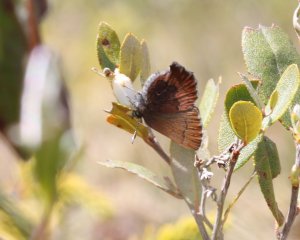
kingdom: Animalia
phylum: Arthropoda
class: Insecta
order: Lepidoptera
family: Lycaenidae
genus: Incisalia
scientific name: Incisalia irioides
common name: Brown Elfin
